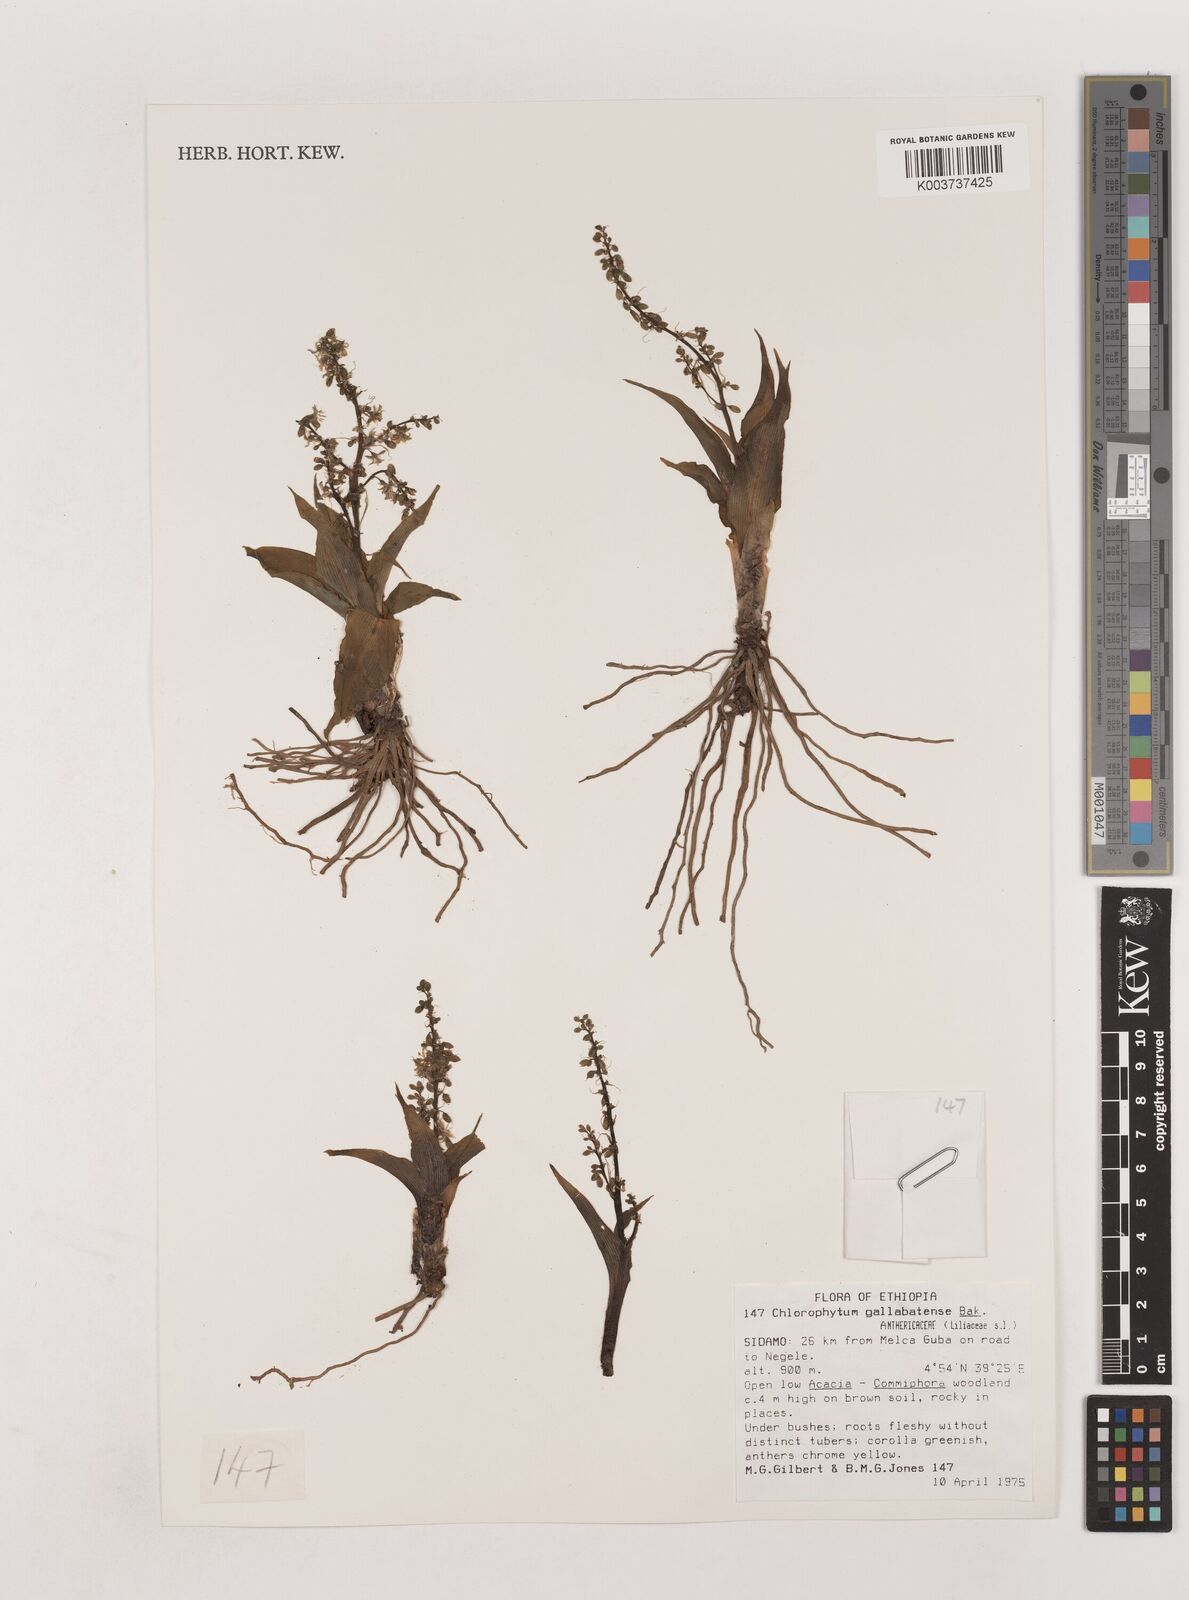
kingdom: Plantae
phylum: Tracheophyta
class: Liliopsida
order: Asparagales
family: Asparagaceae
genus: Chlorophytum
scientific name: Chlorophytum gallabatense
